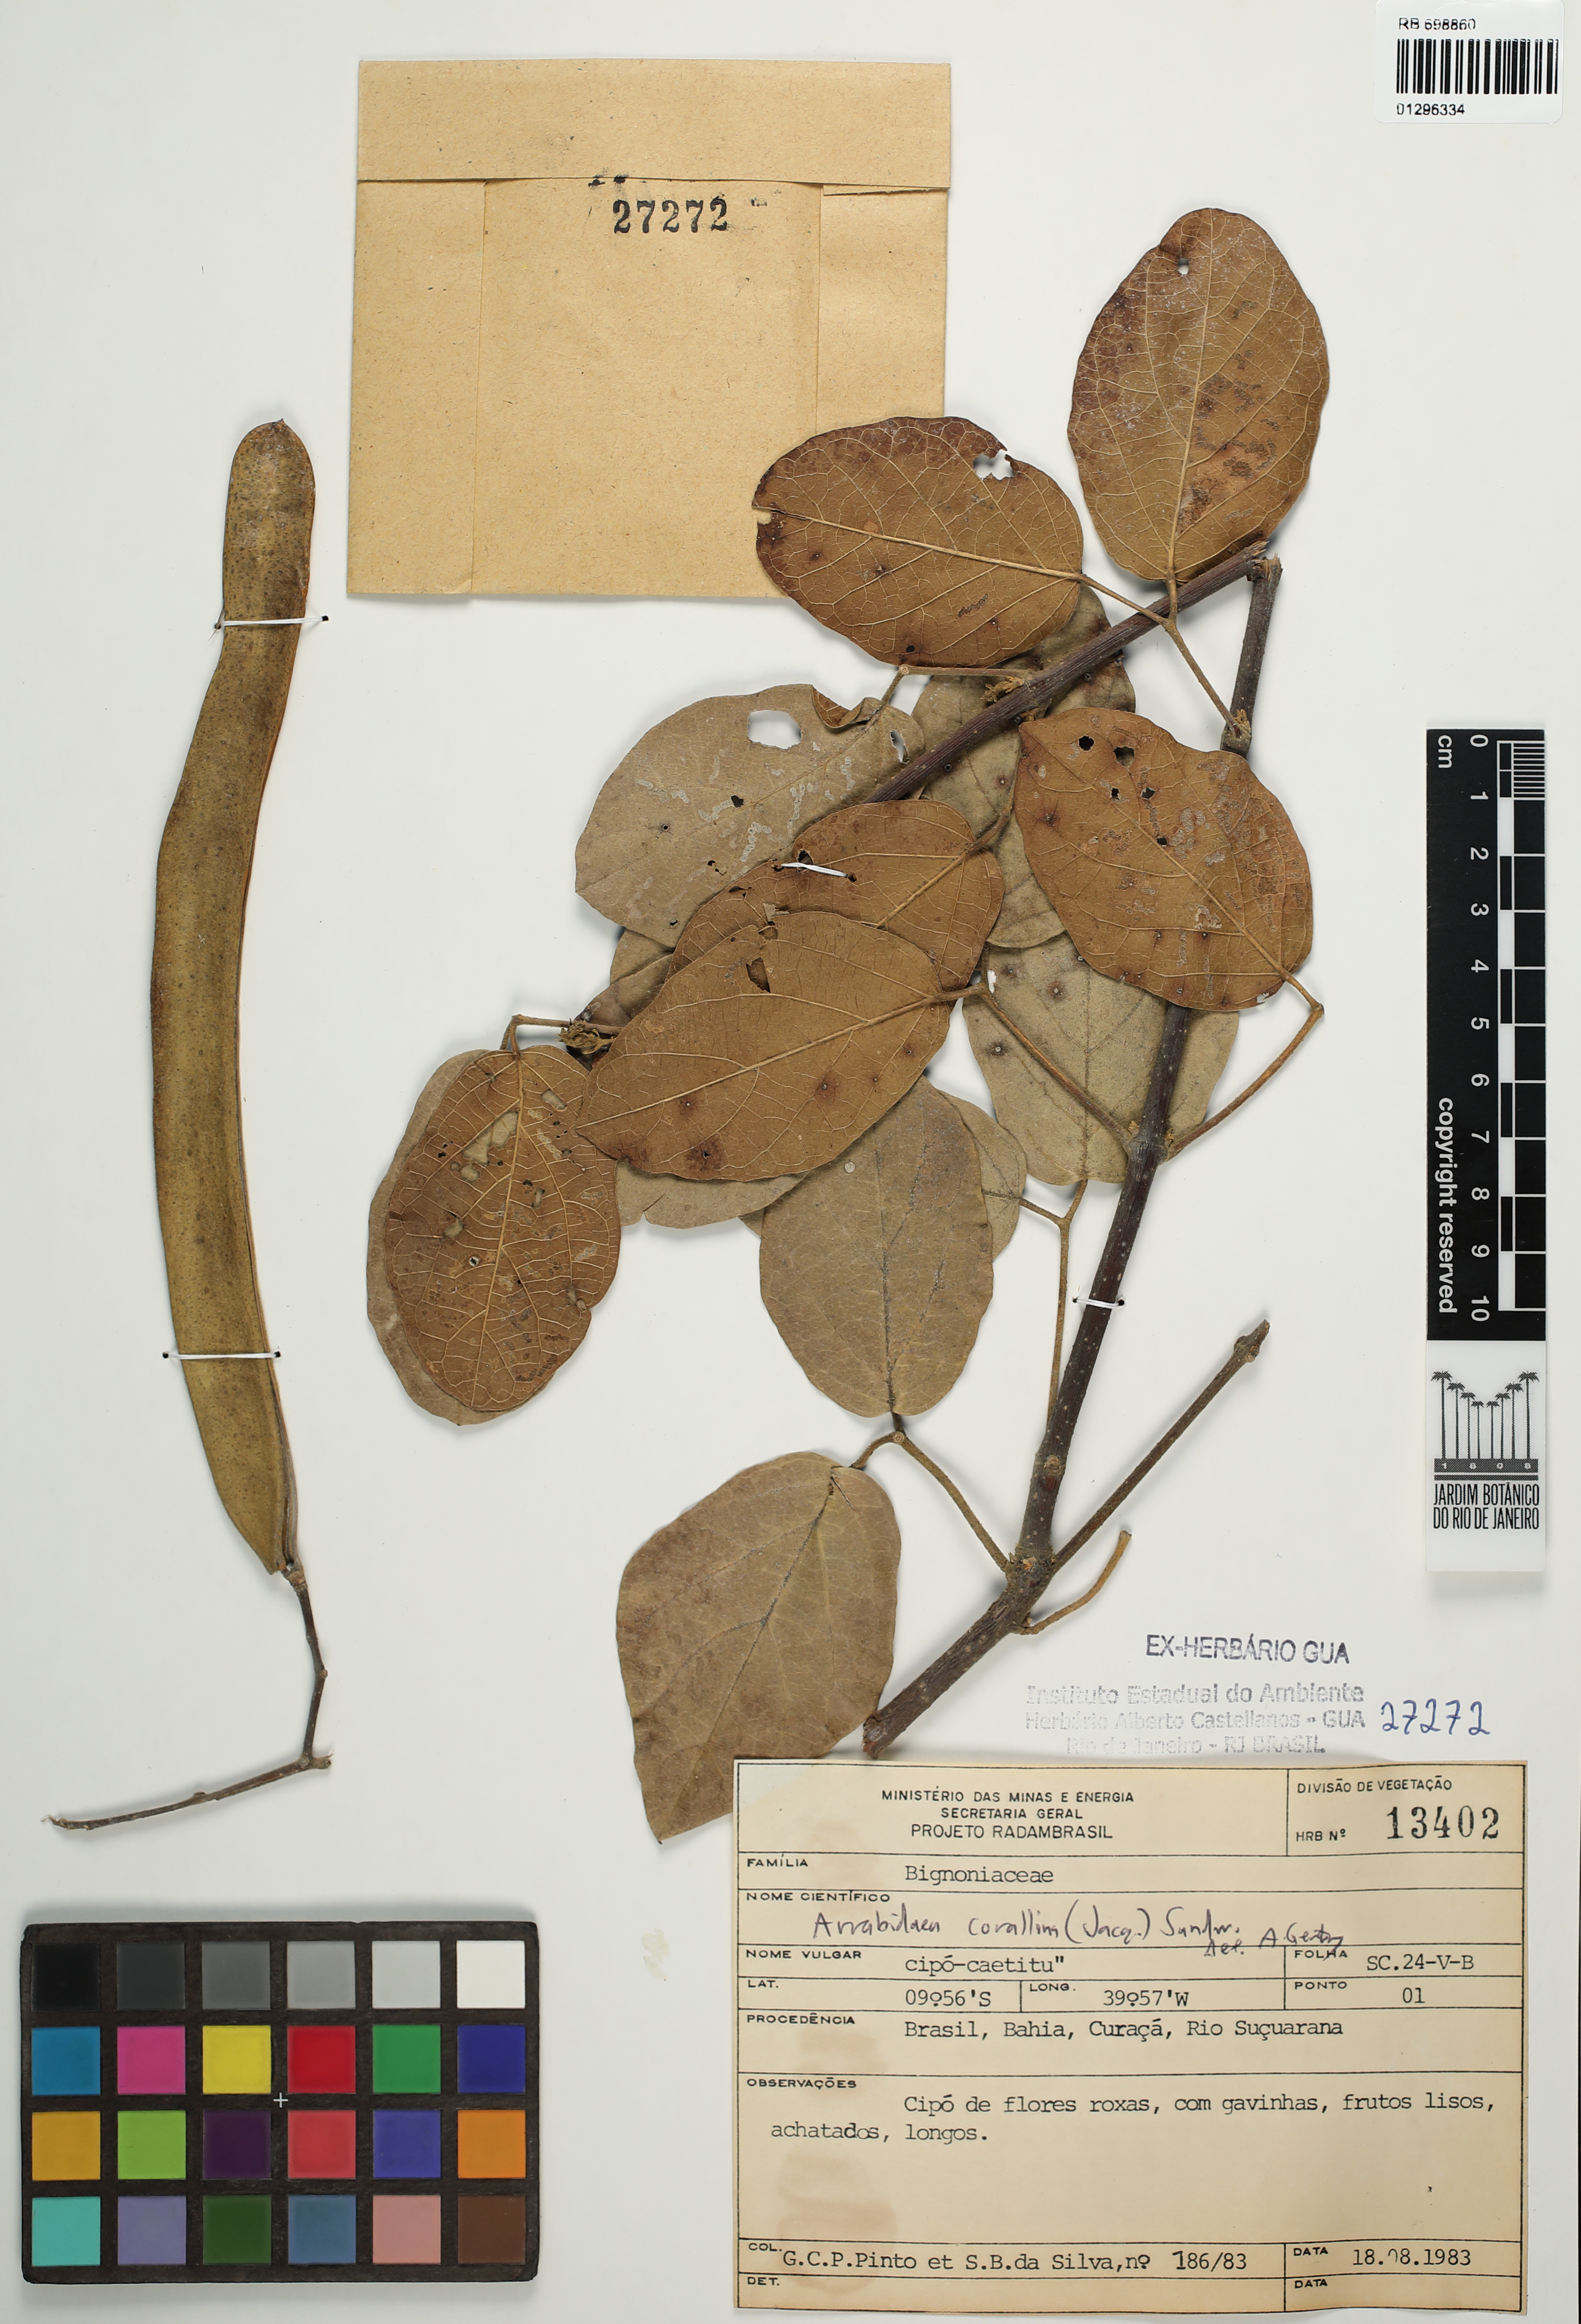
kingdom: Plantae
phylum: Tracheophyta
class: Magnoliopsida
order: Lamiales
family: Bignoniaceae
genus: Tanaecium
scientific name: Tanaecium dichotomum
